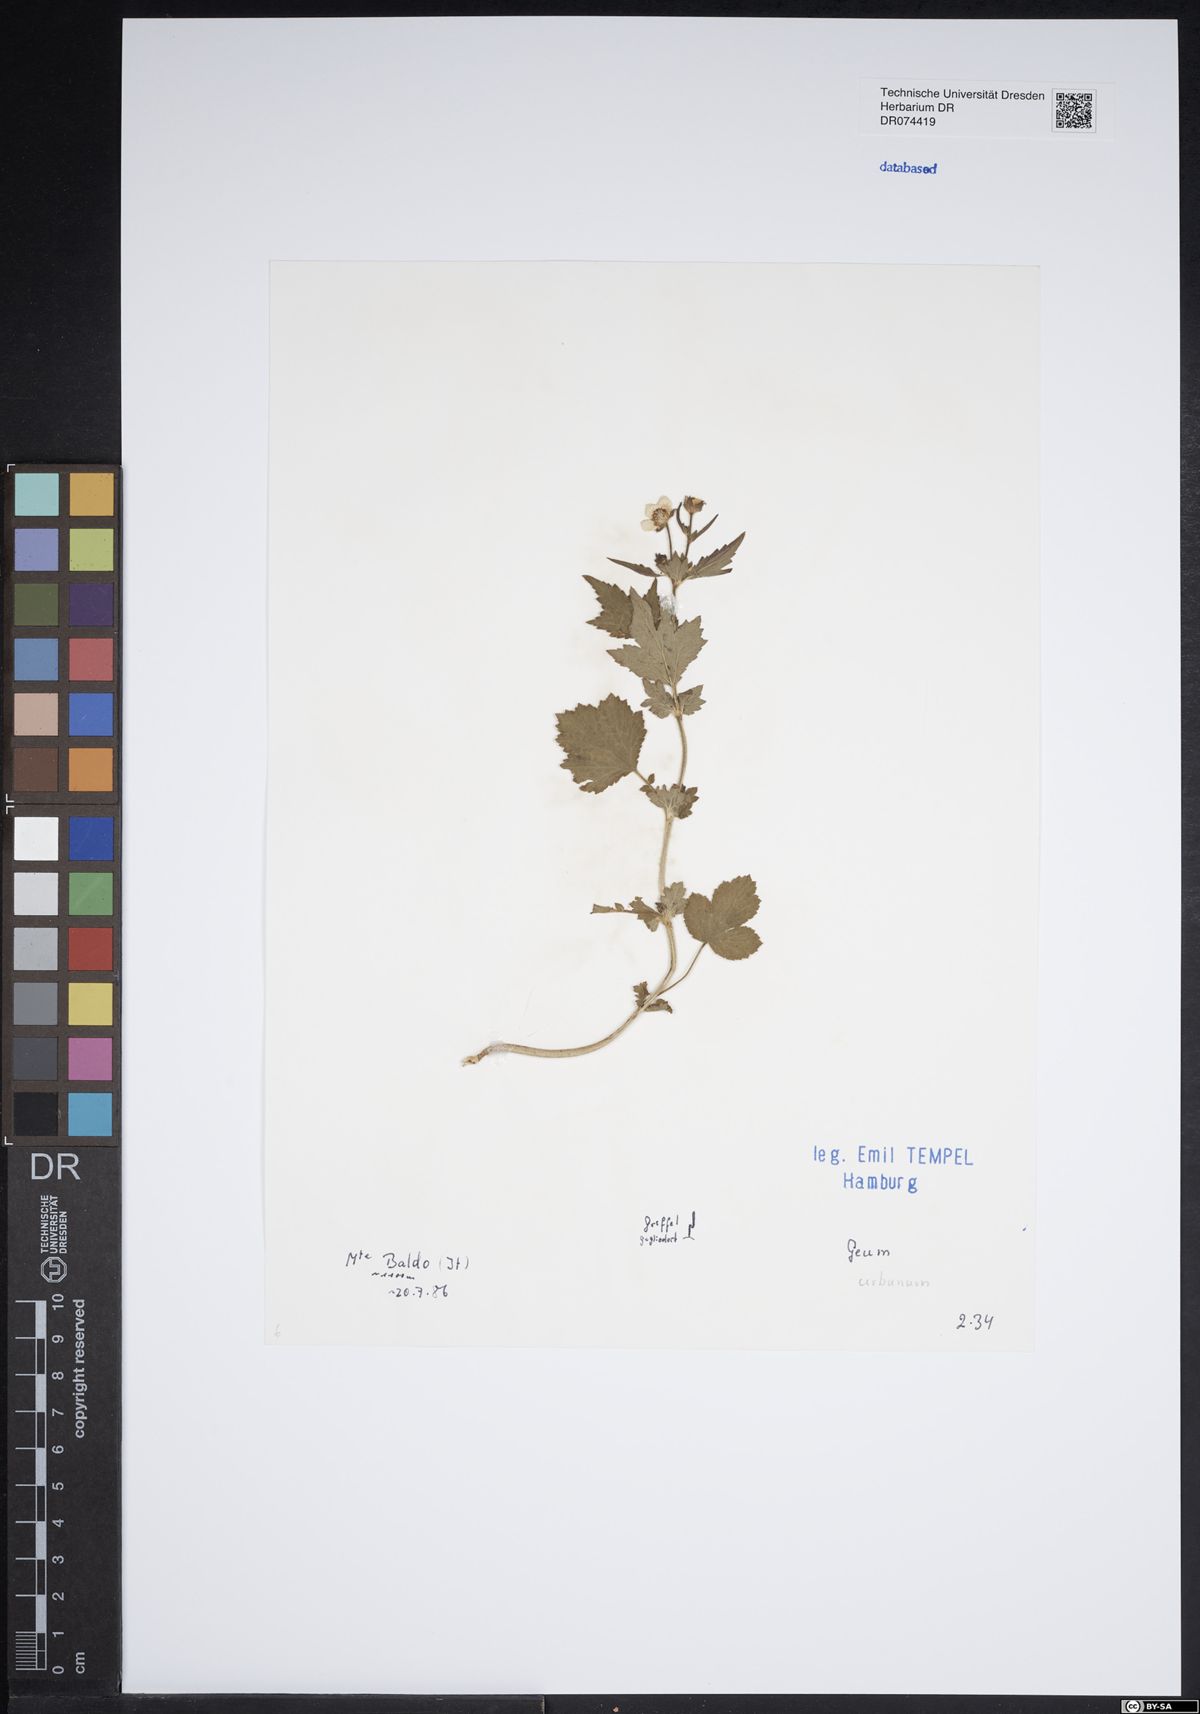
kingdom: Plantae
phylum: Tracheophyta
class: Magnoliopsida
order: Rosales
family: Rosaceae
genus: Geum
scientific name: Geum urbanum
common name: Wood avens
